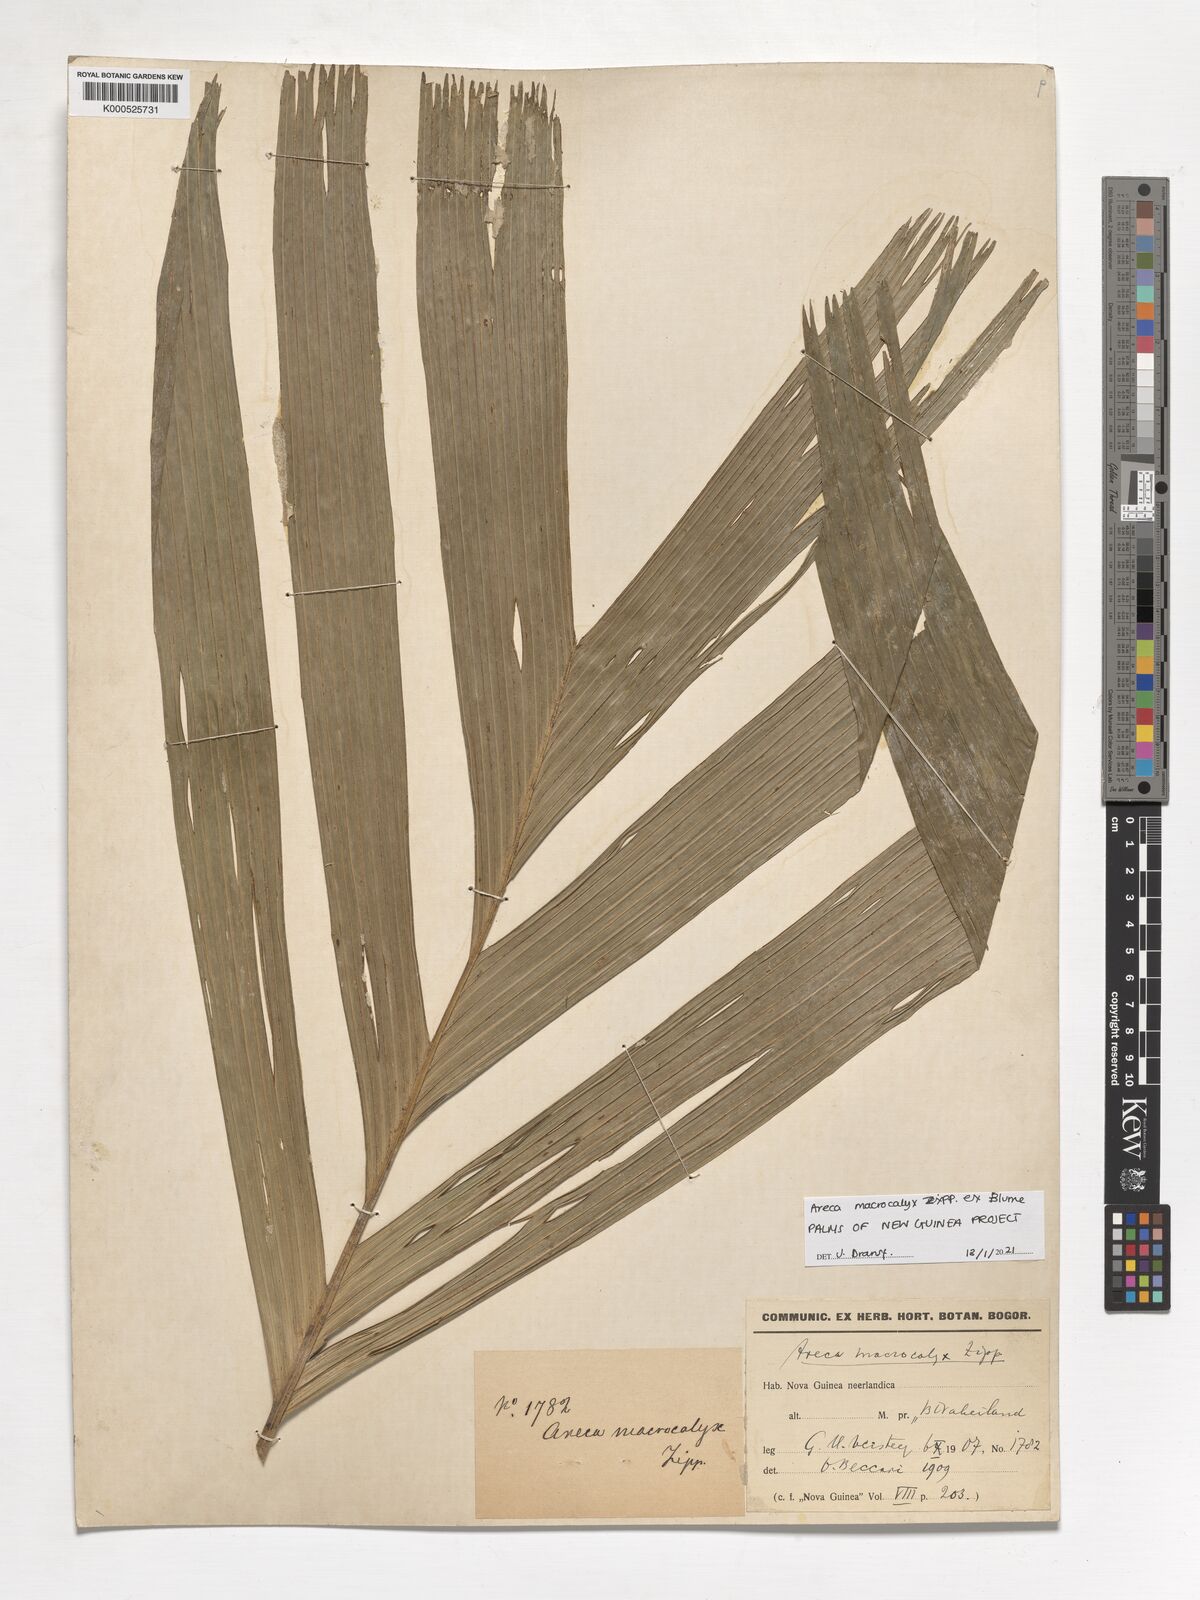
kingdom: Plantae
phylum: Tracheophyta
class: Liliopsida
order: Arecales
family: Arecaceae
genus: Areca
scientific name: Areca macrocalyx
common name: Highland betel-nut palm
